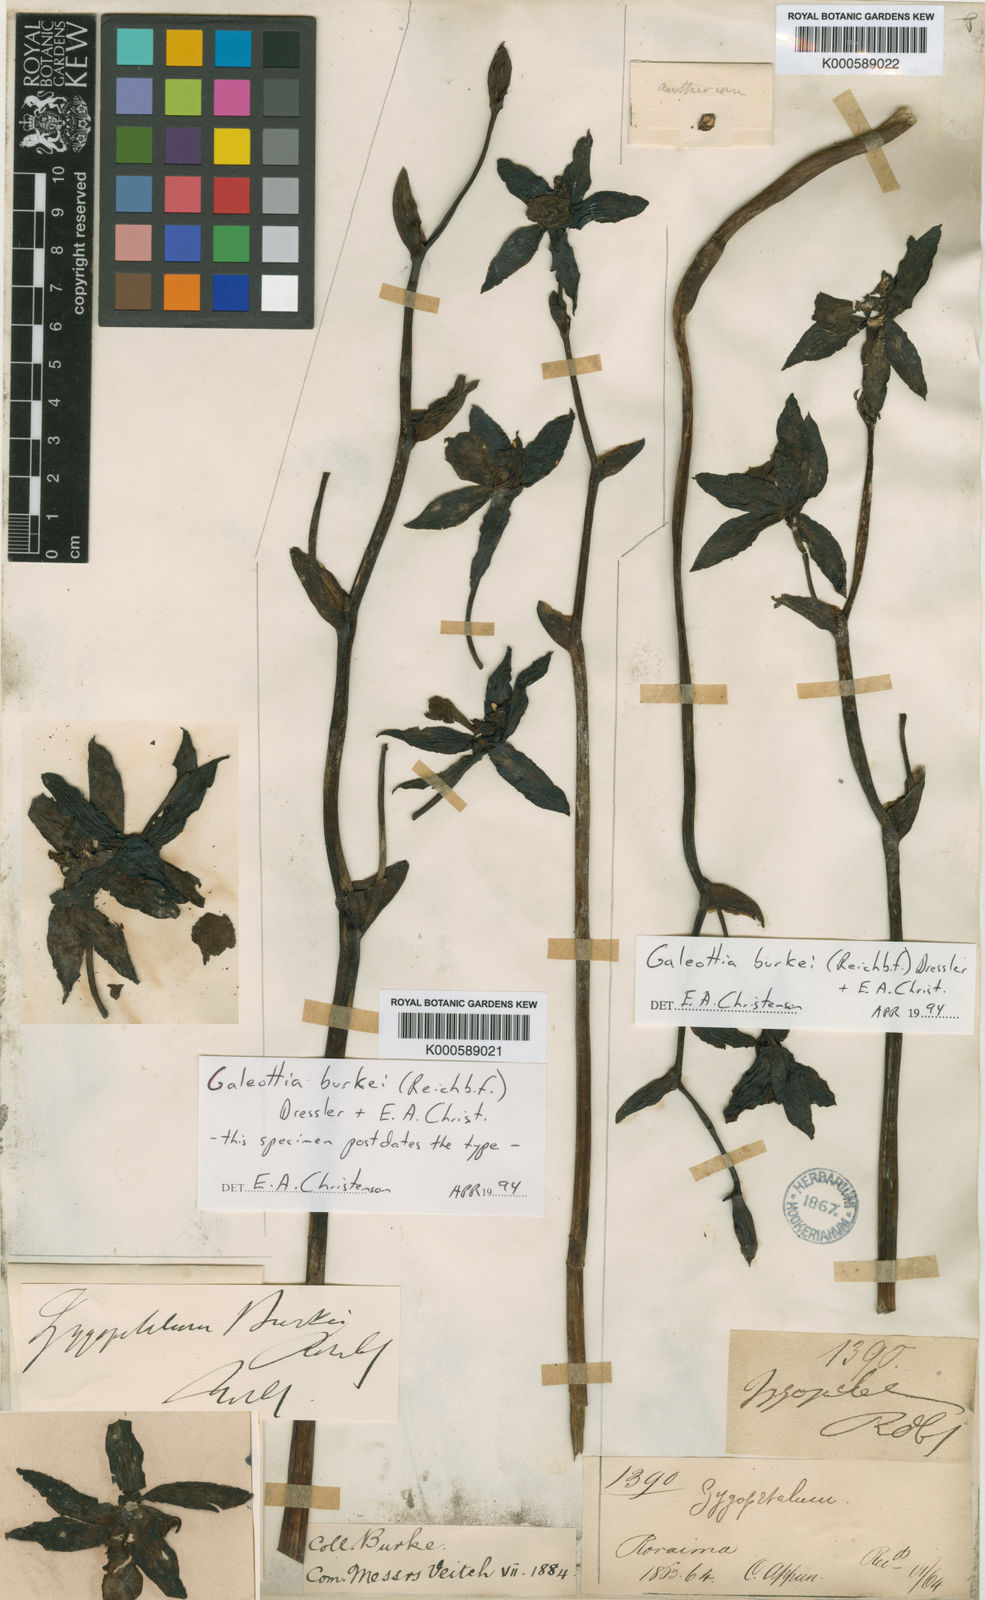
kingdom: Plantae
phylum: Tracheophyta
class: Liliopsida
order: Asparagales
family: Orchidaceae
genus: Galeottia
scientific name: Galeottia burkei
